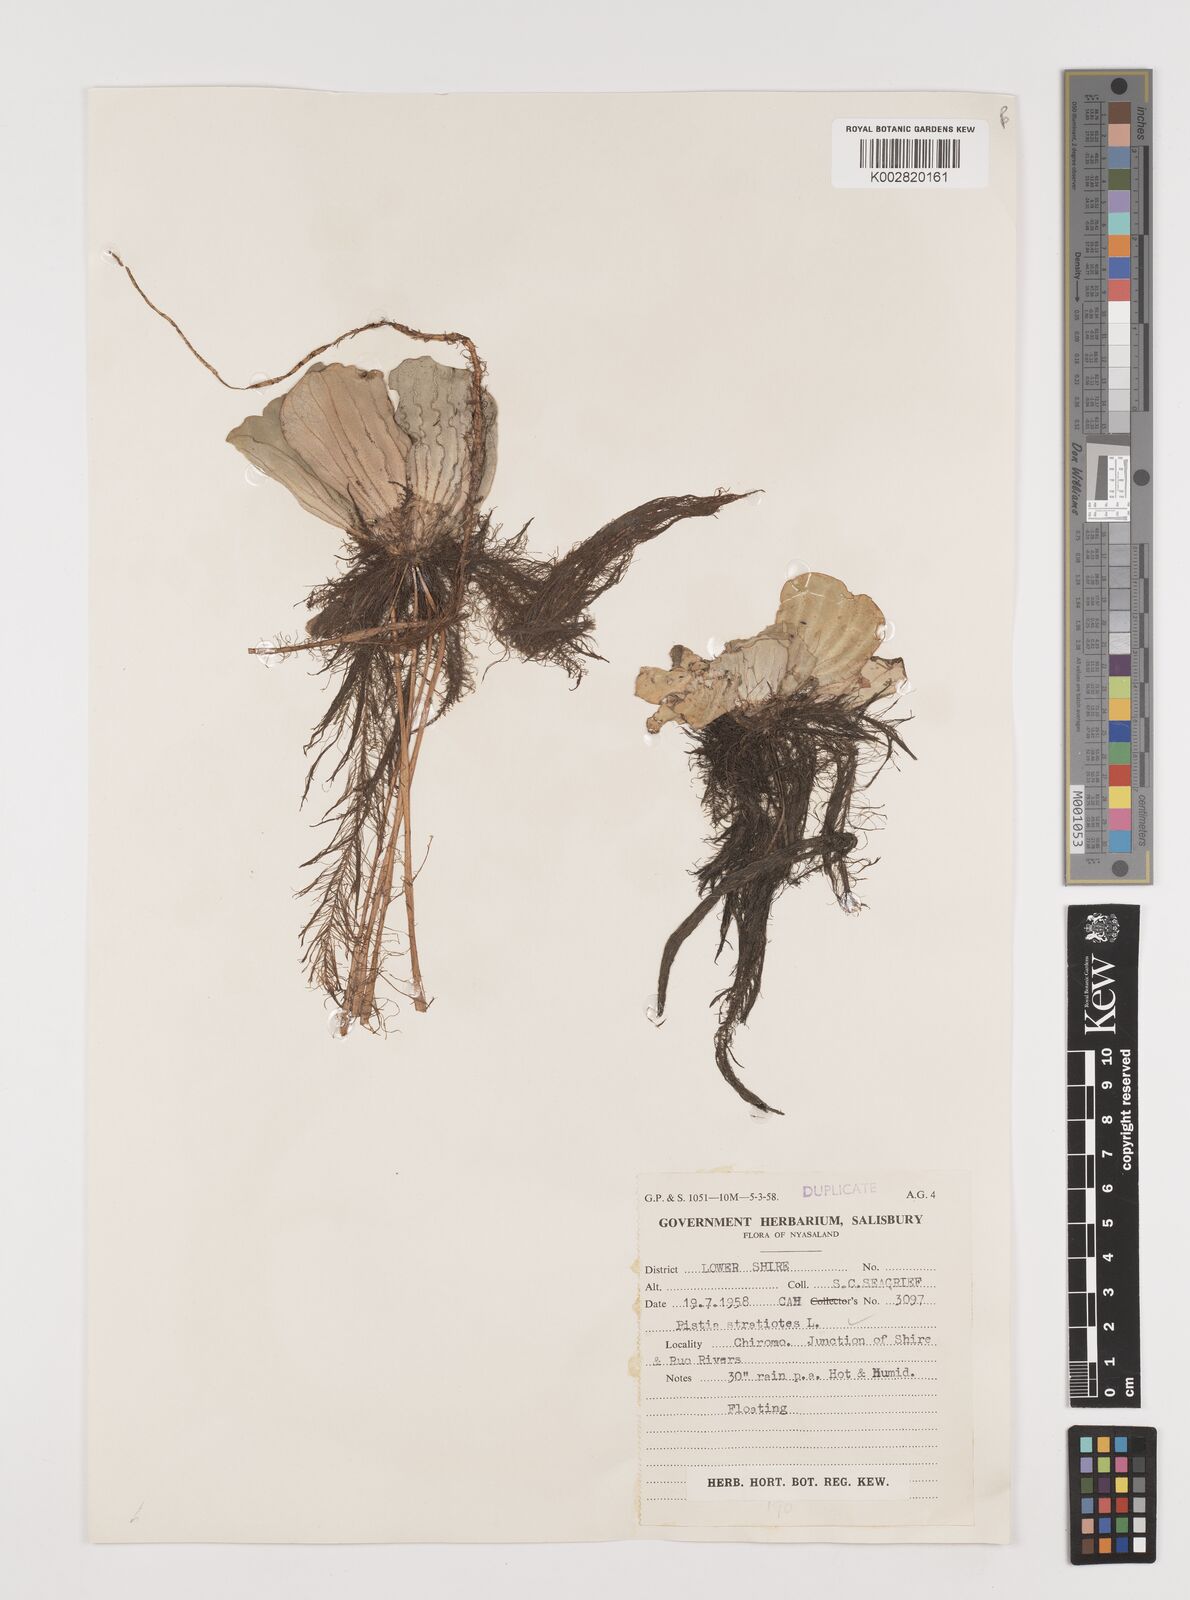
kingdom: Plantae
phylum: Tracheophyta
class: Liliopsida
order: Alismatales
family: Araceae
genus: Pistia
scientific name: Pistia stratiotes
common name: Water lettuce
